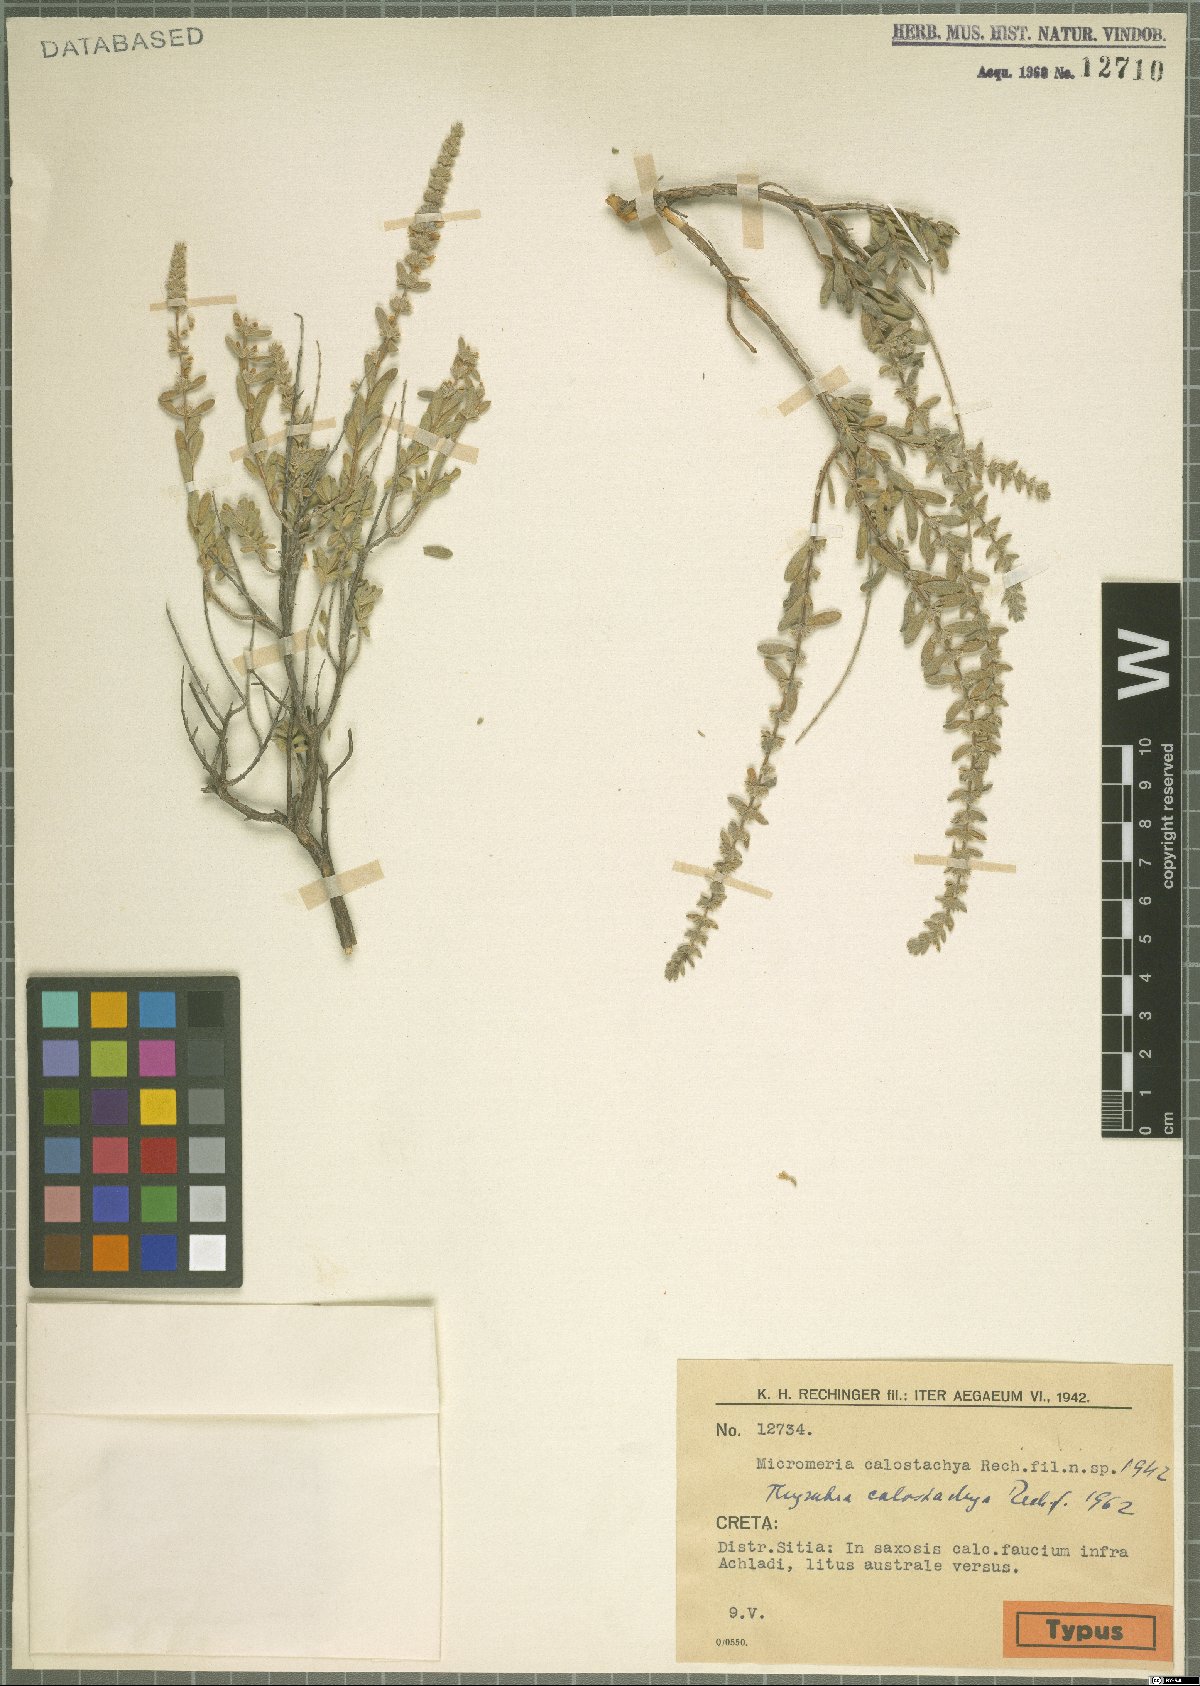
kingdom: Plantae
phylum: Tracheophyta
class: Magnoliopsida
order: Lamiales
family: Lamiaceae
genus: Thymbra
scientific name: Thymbra calostachya
